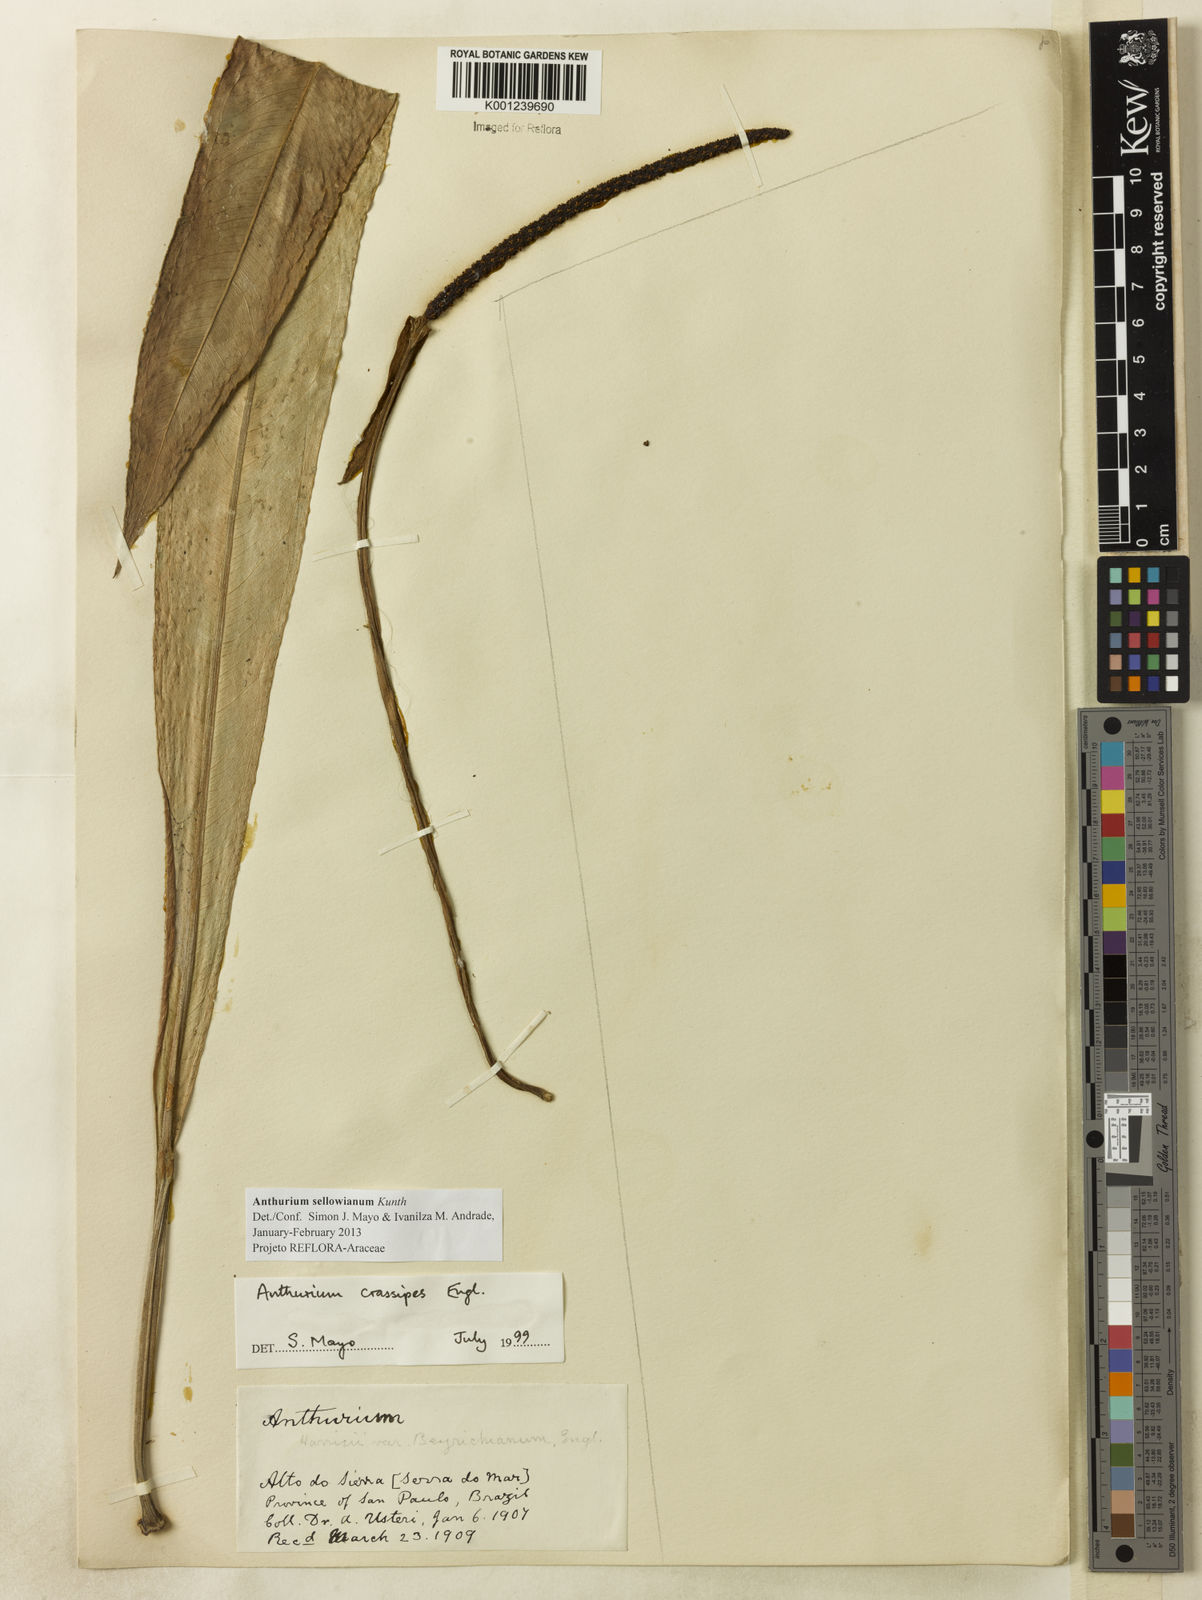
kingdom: Plantae
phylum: Tracheophyta
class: Liliopsida
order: Alismatales
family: Araceae
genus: Anthurium
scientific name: Anthurium sellowianum
